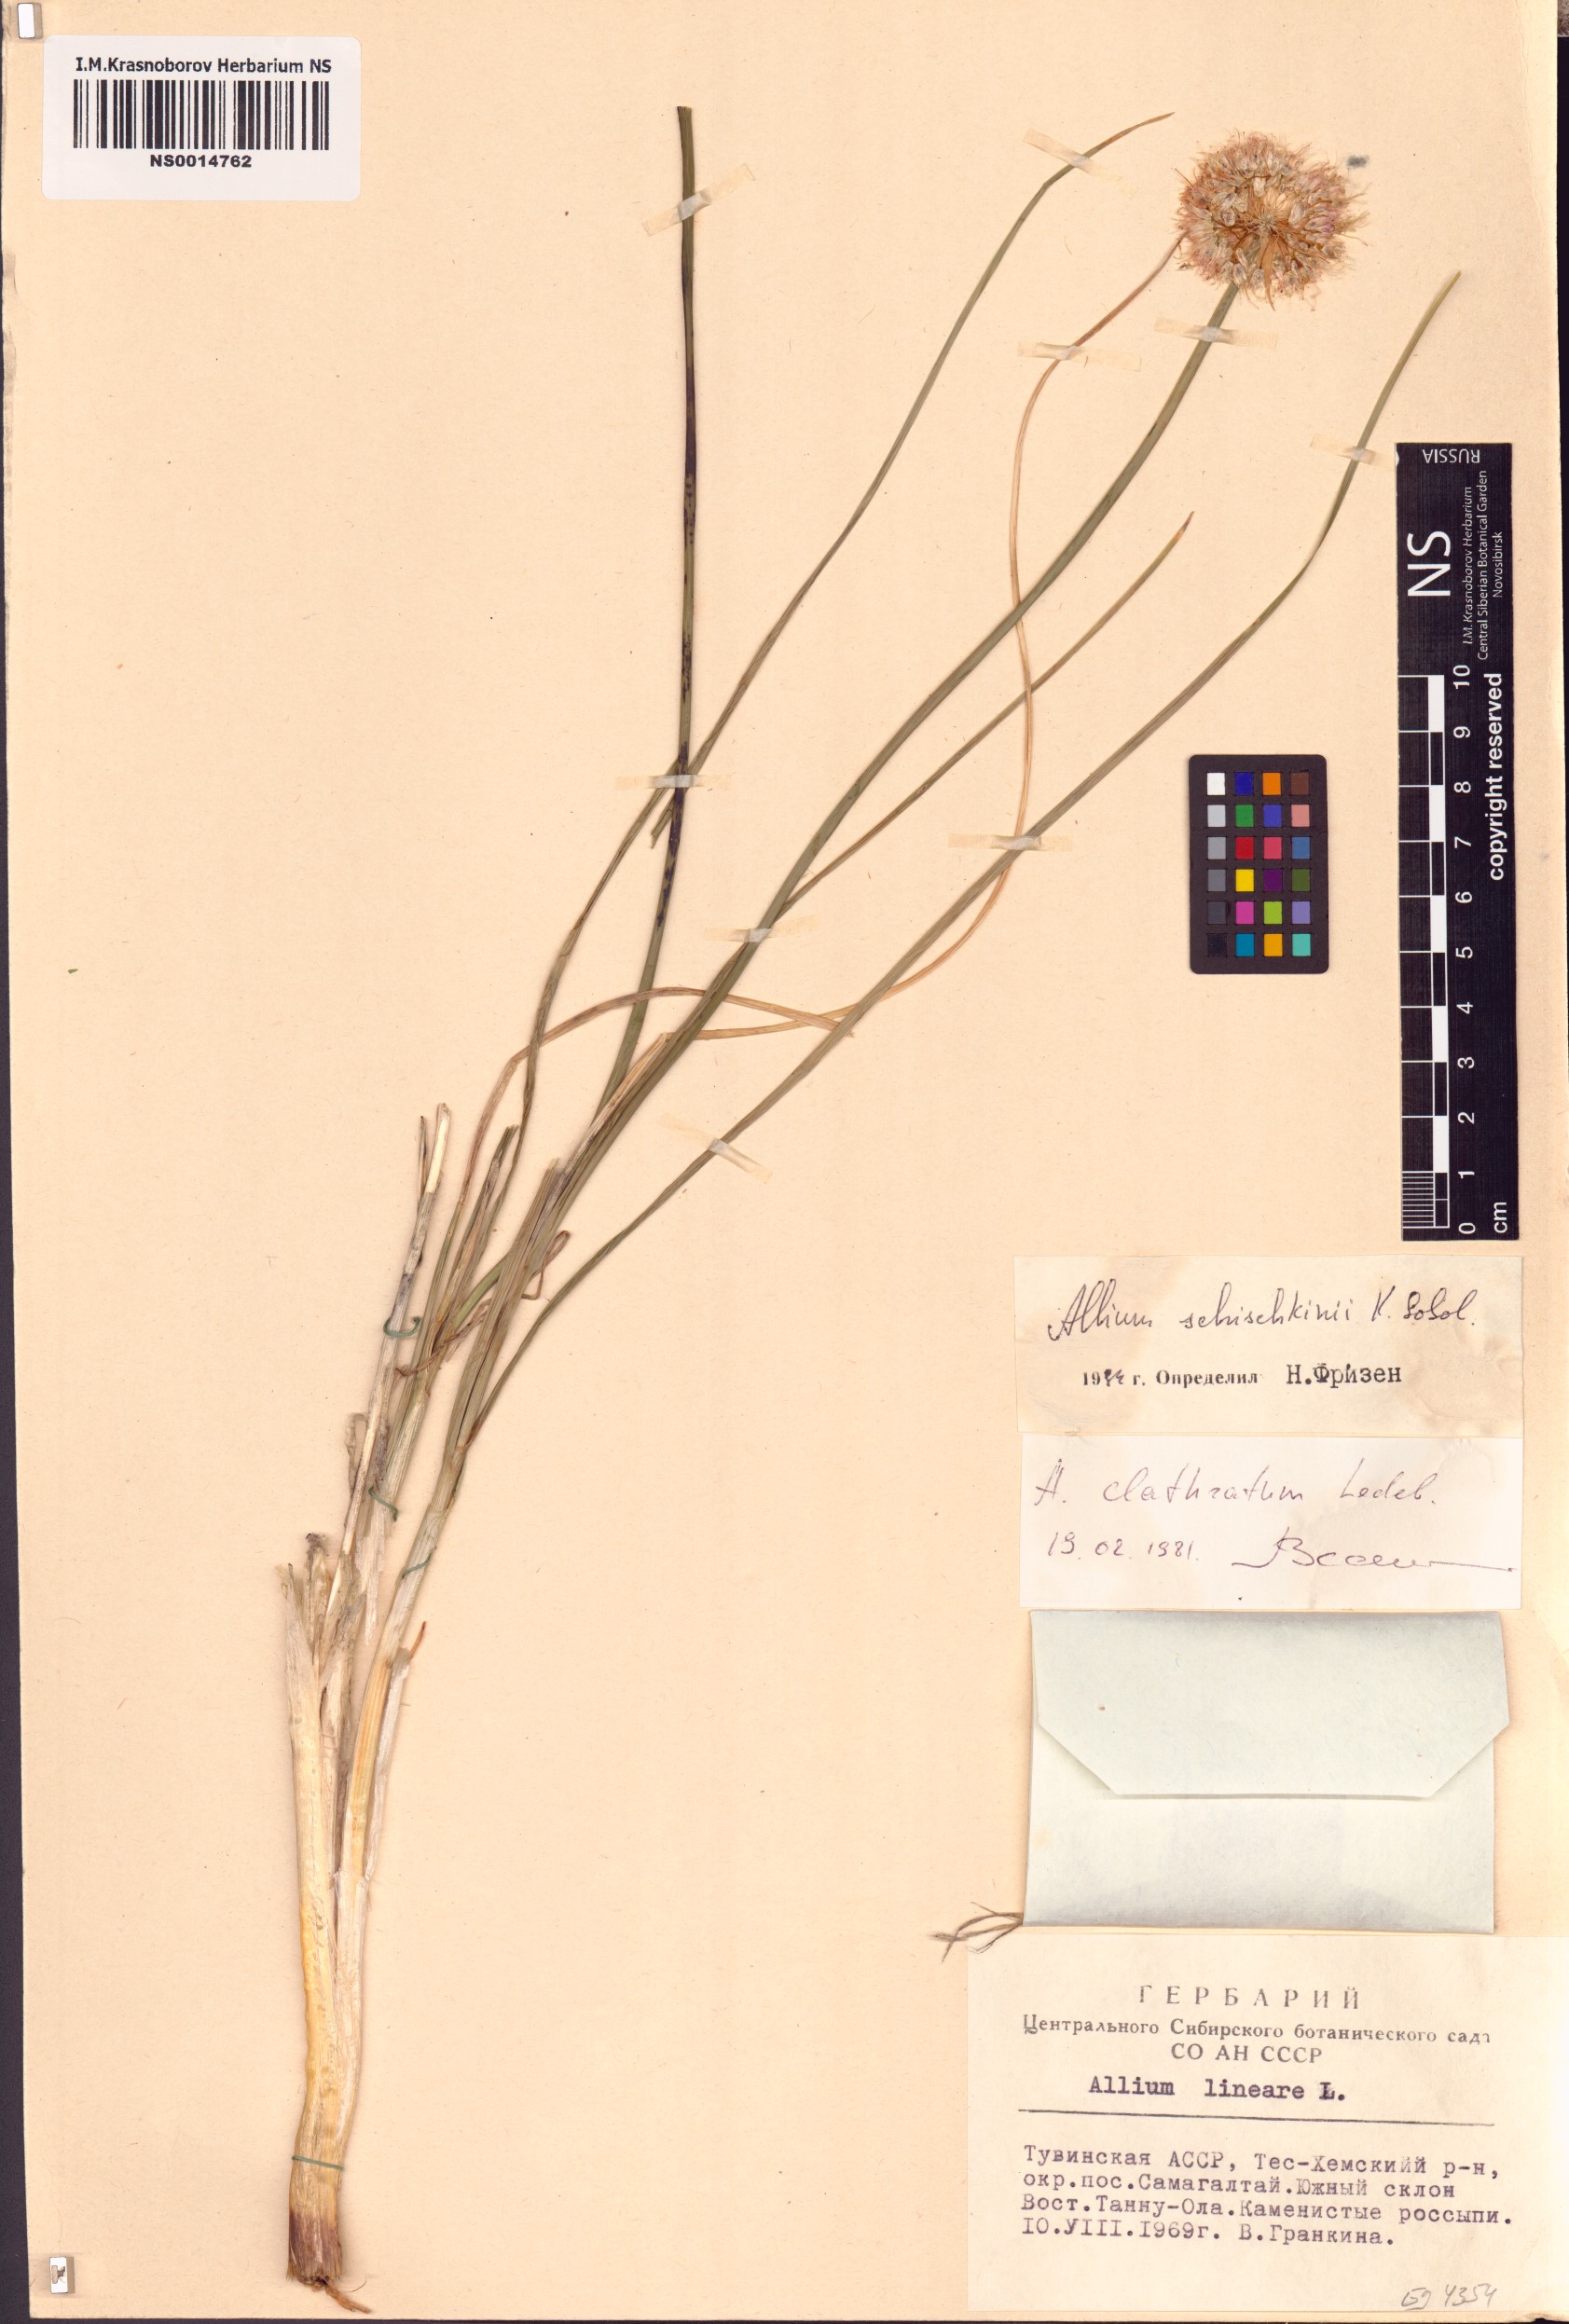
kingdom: Plantae
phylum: Tracheophyta
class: Liliopsida
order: Asparagales
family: Amaryllidaceae
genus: Allium
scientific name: Allium schischkinii
